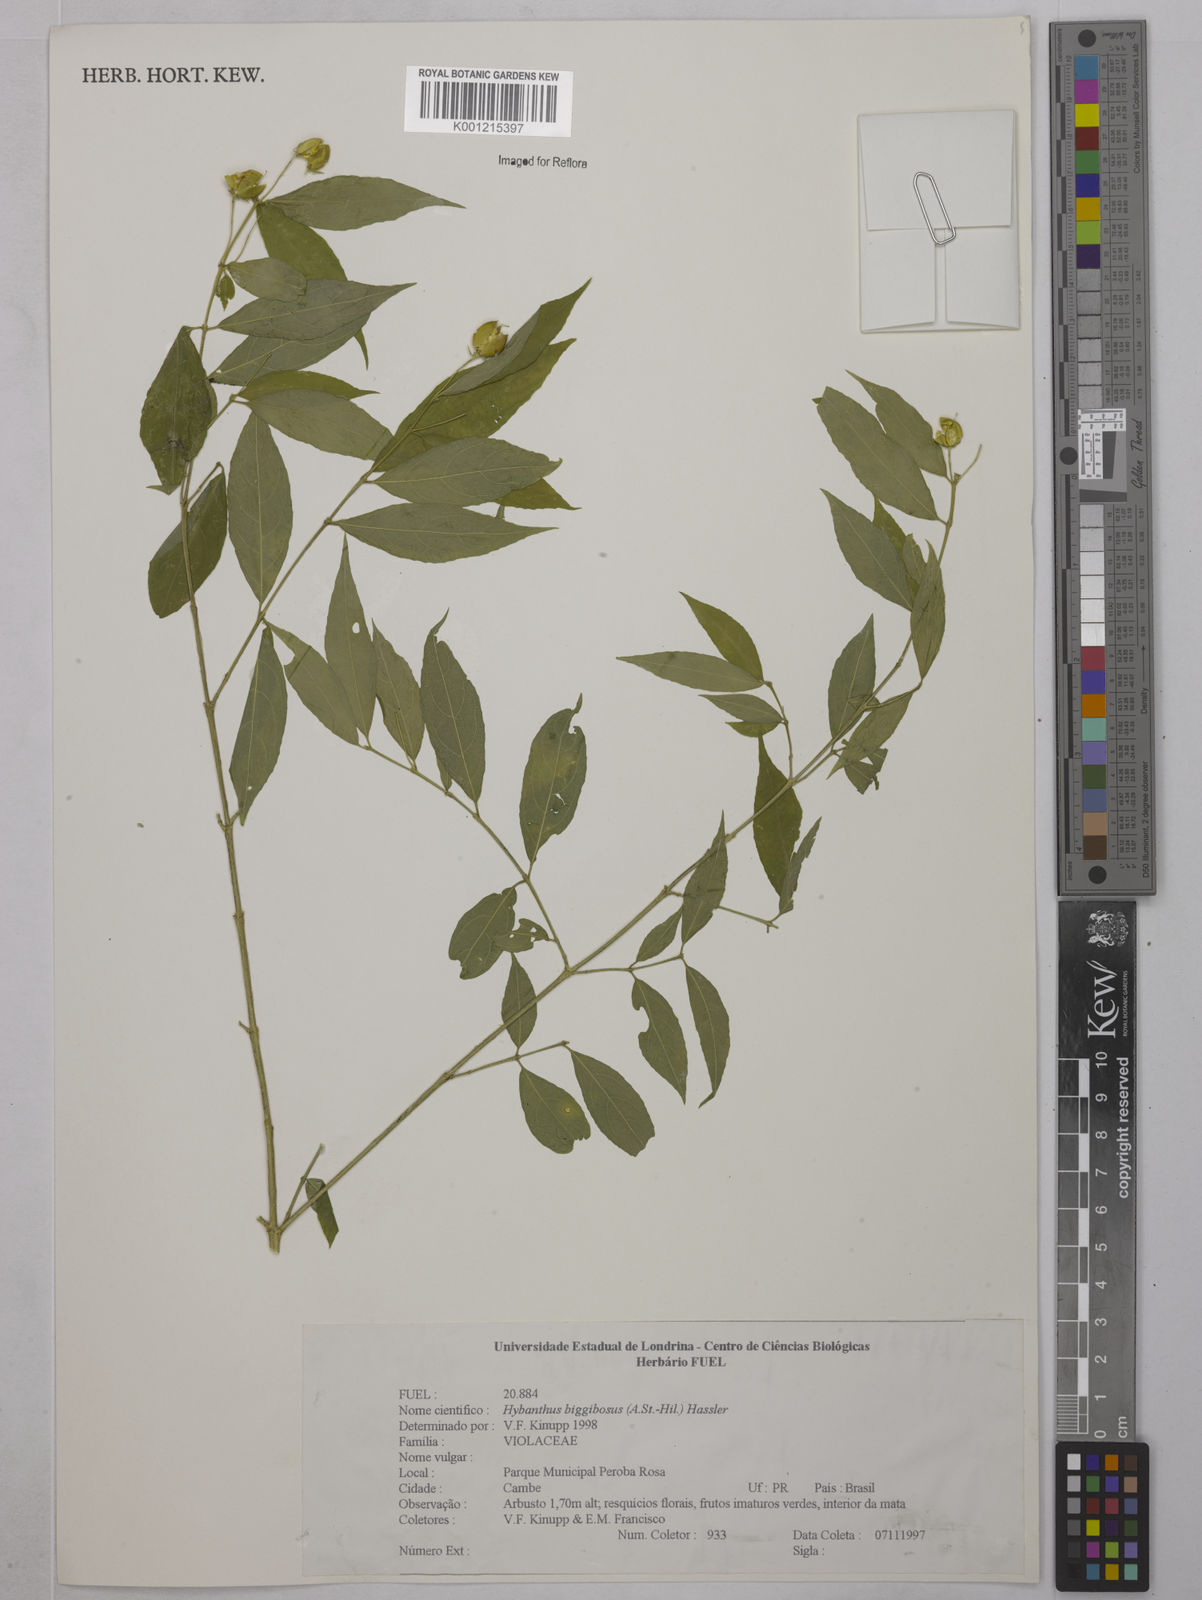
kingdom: Plantae
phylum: Tracheophyta
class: Magnoliopsida
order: Malpighiales
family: Violaceae
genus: Pombalia
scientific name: Pombalia bigibbosa
